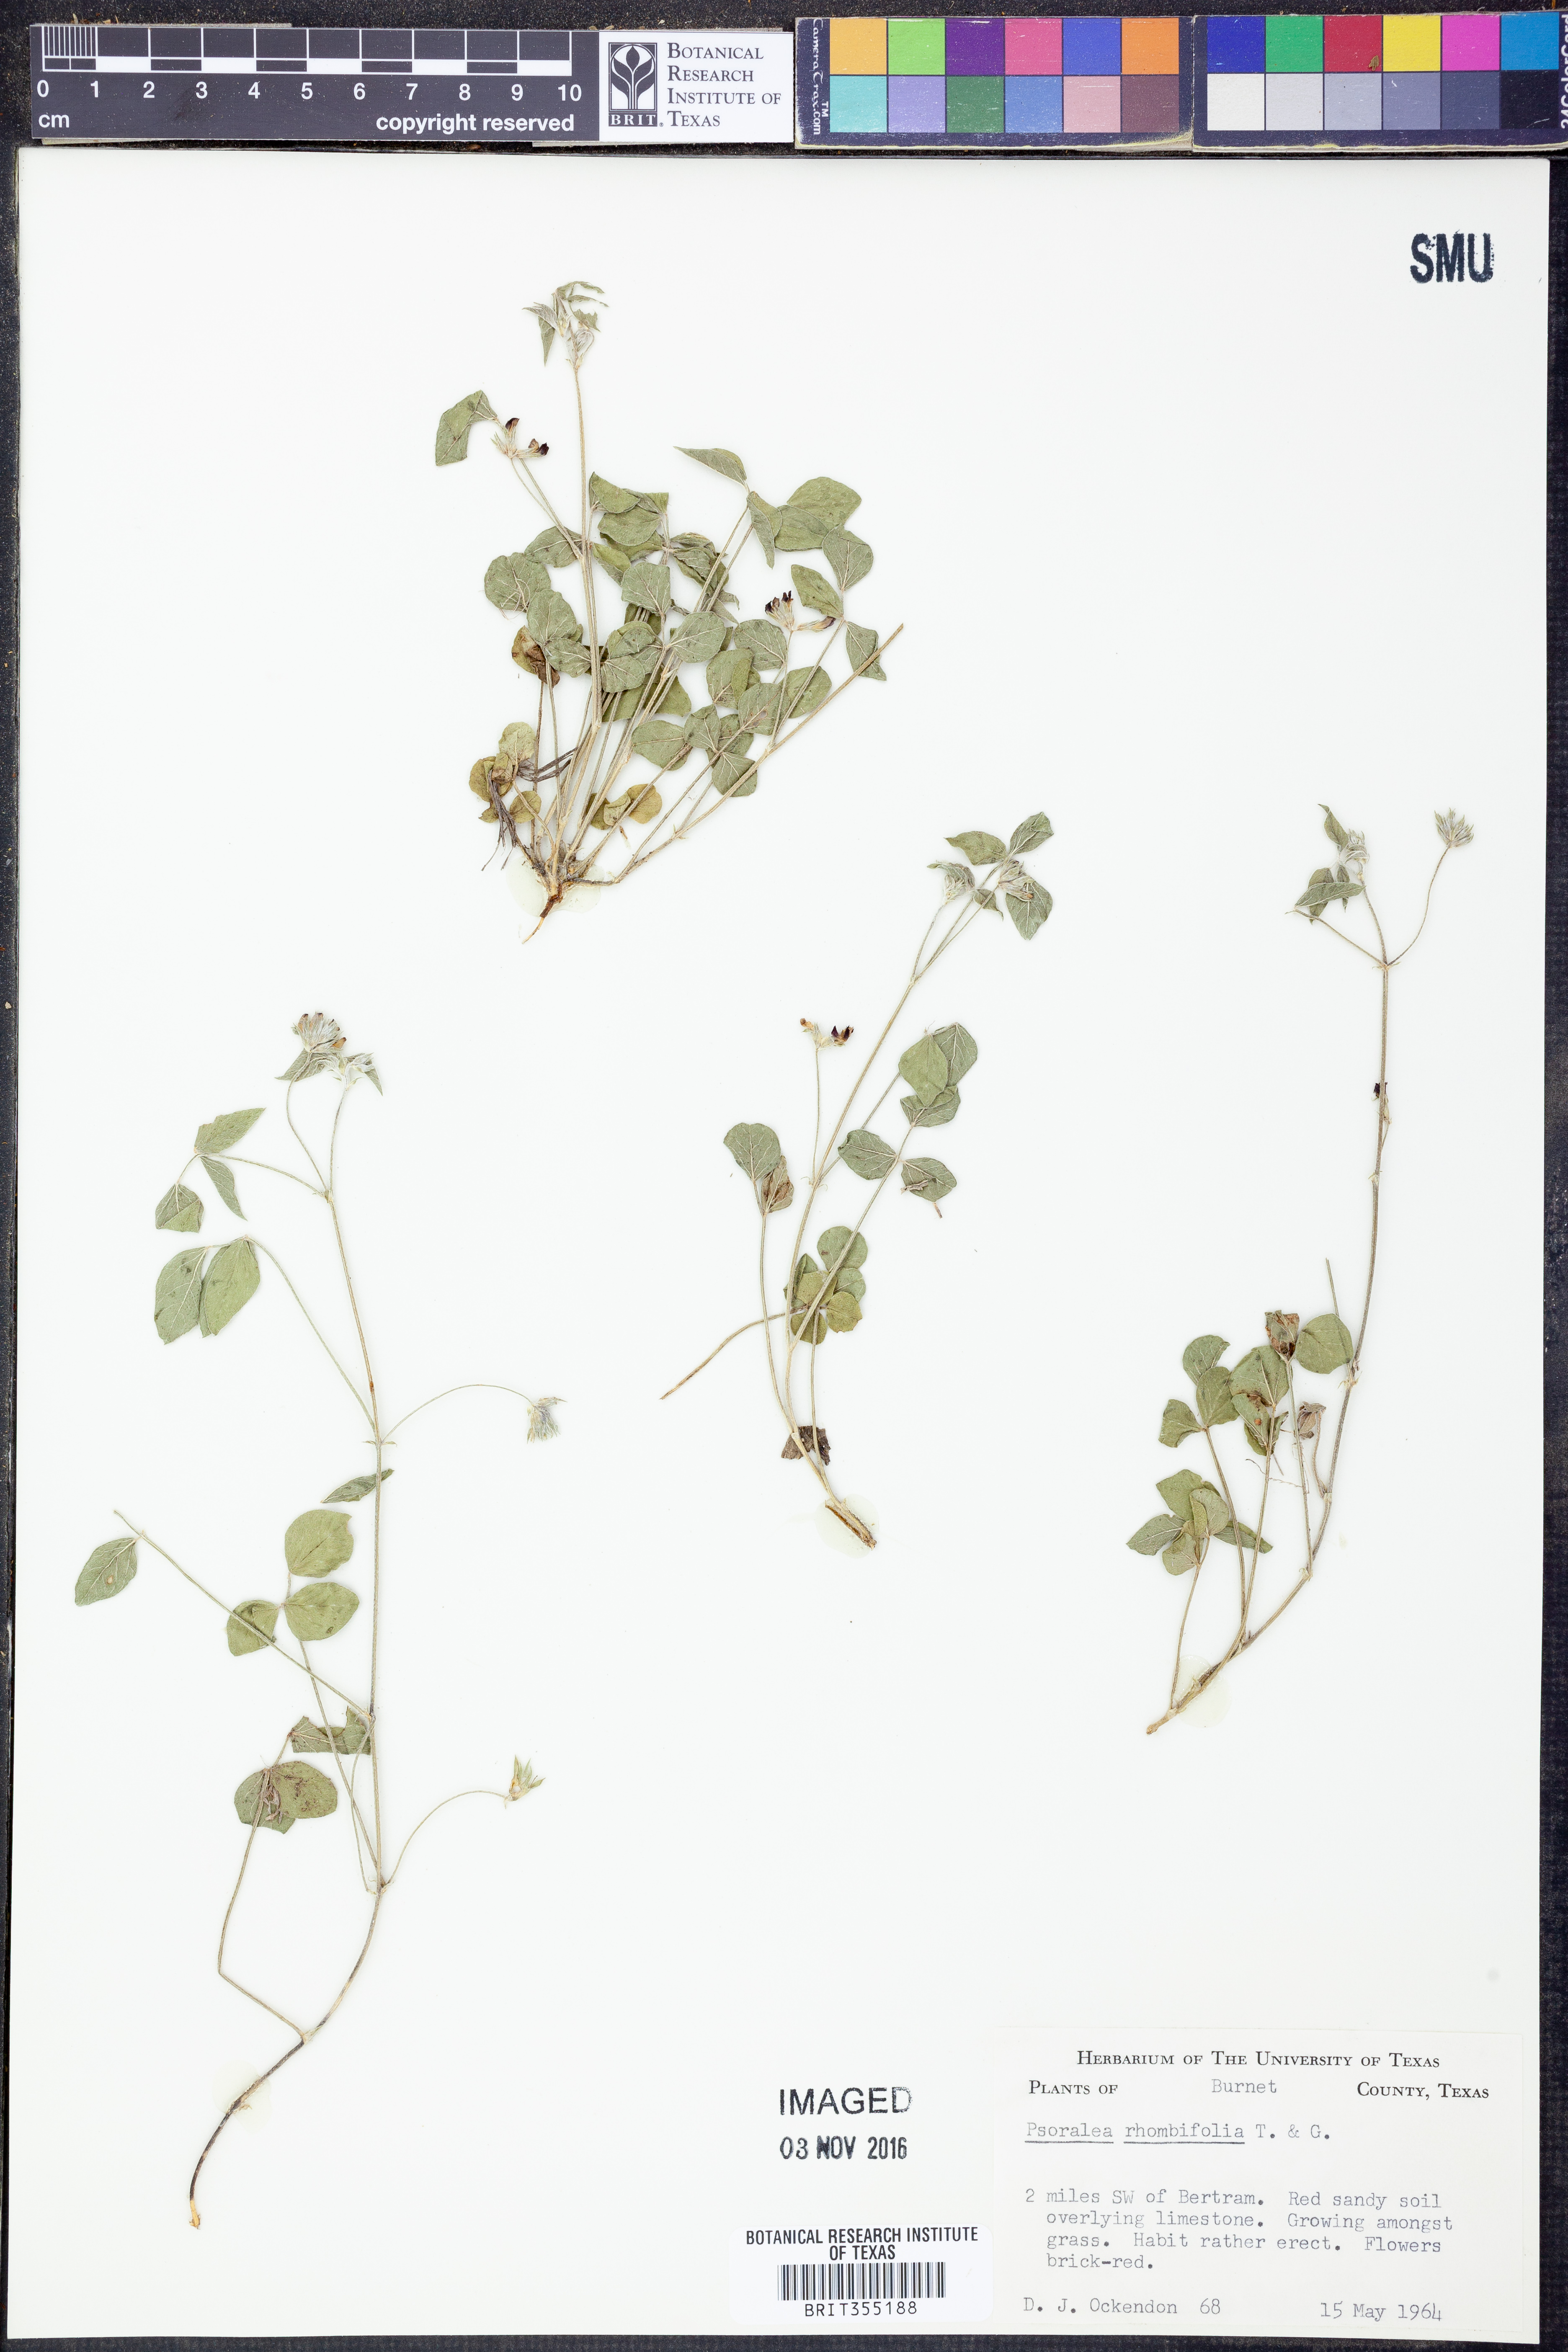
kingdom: Plantae
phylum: Tracheophyta
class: Magnoliopsida
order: Fabales
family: Fabaceae
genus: Pediomelum
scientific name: Pediomelum rhombifolium
